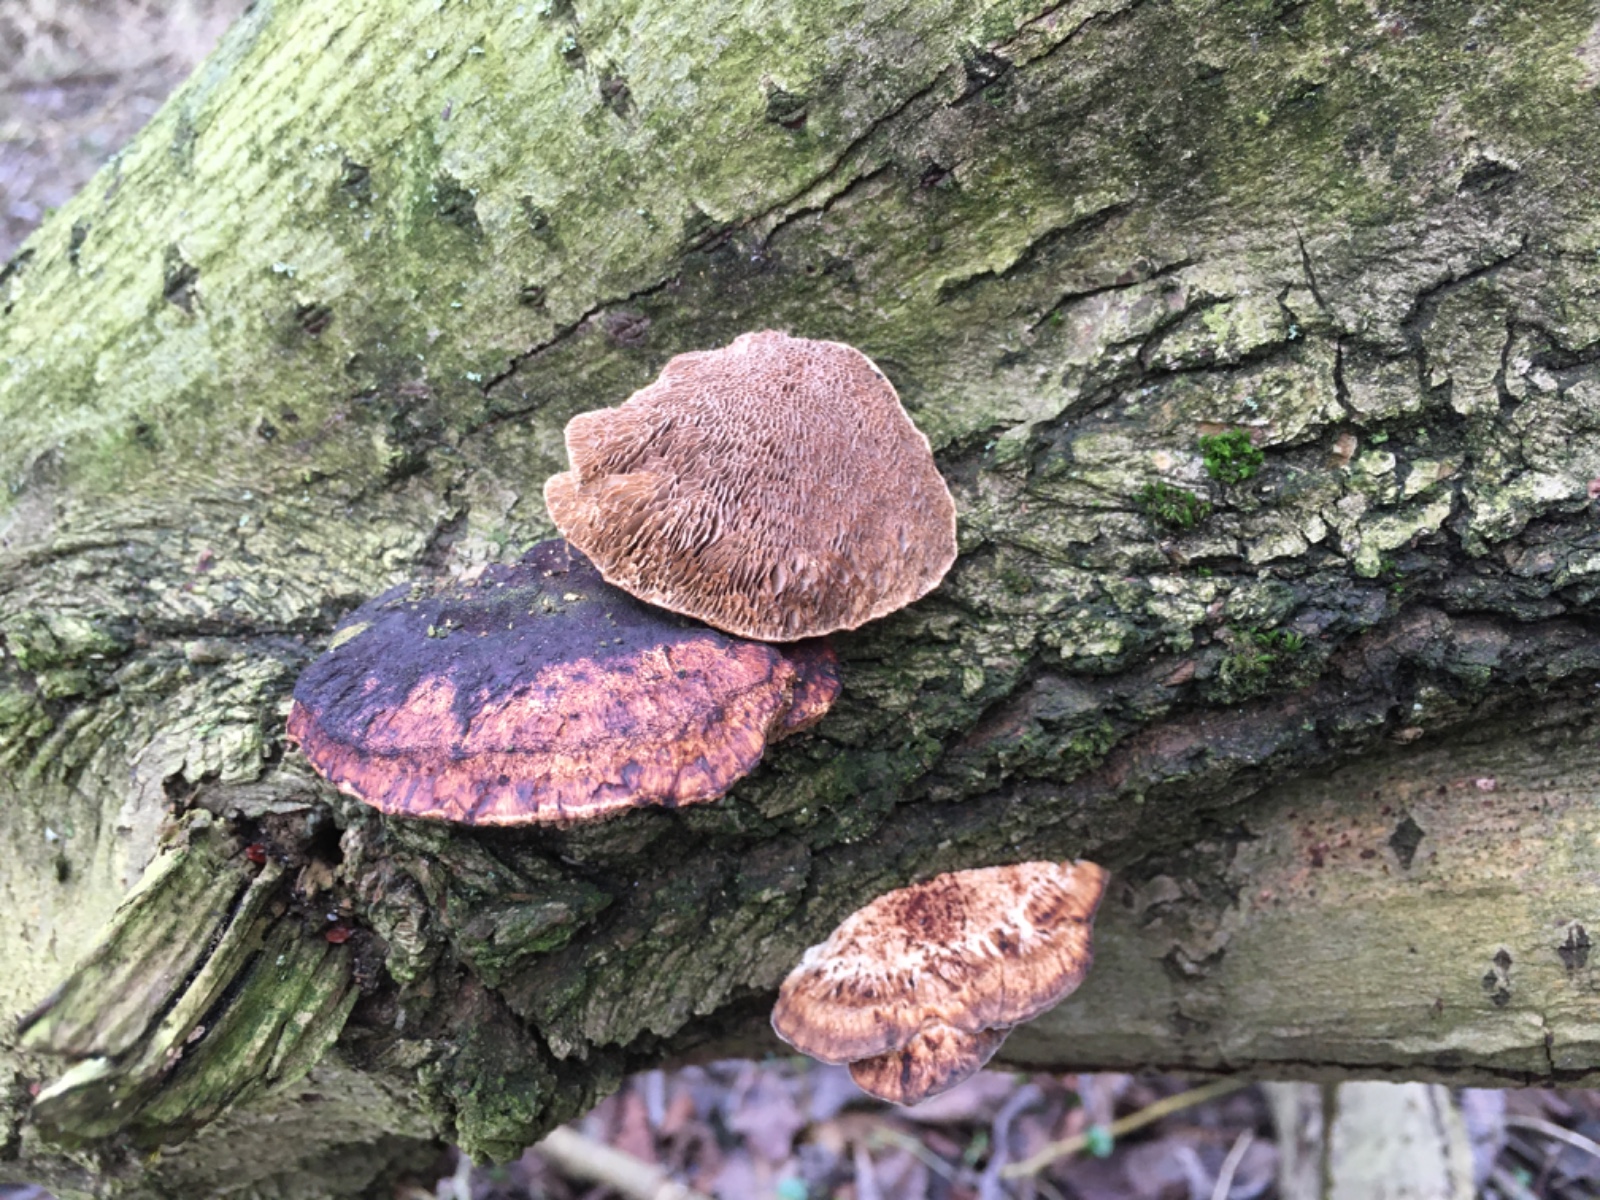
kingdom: Fungi
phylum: Basidiomycota
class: Agaricomycetes
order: Polyporales
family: Polyporaceae
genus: Daedaleopsis
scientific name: Daedaleopsis confragosa
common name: rødmende læderporesvamp
